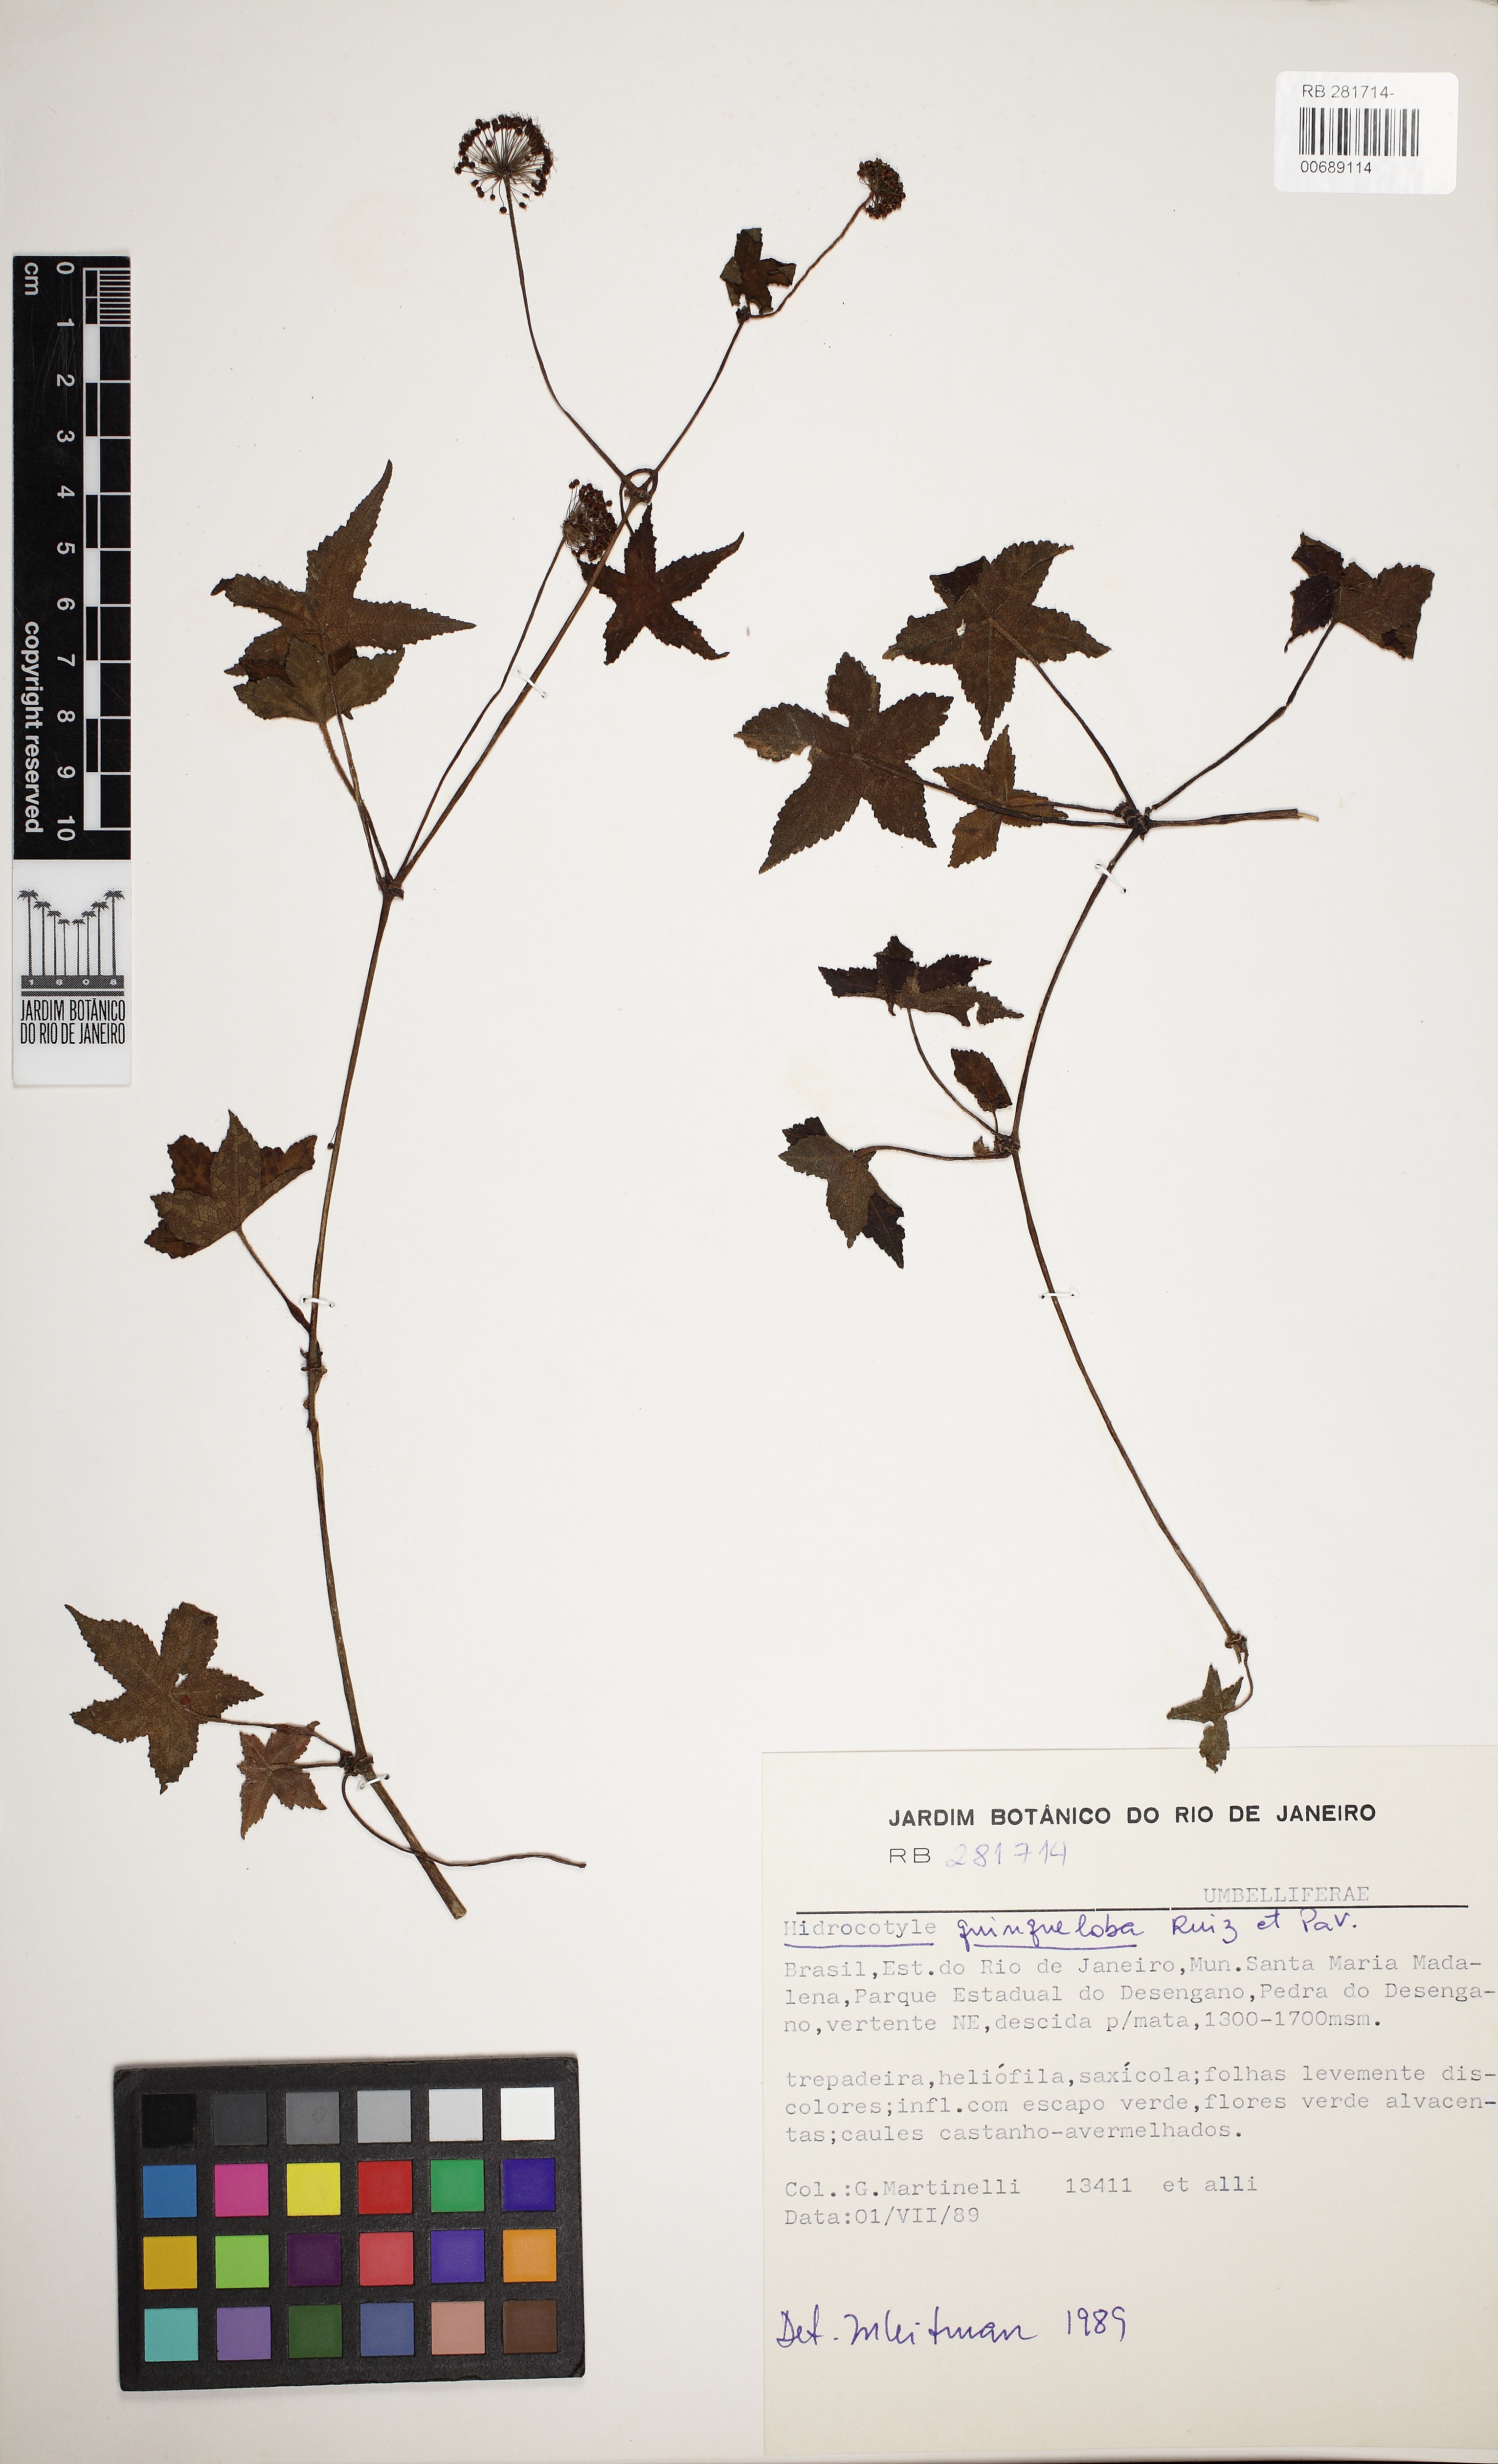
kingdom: Plantae
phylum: Tracheophyta
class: Magnoliopsida
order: Apiales
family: Araliaceae
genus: Hydrocotyle
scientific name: Hydrocotyle quinqueloba
